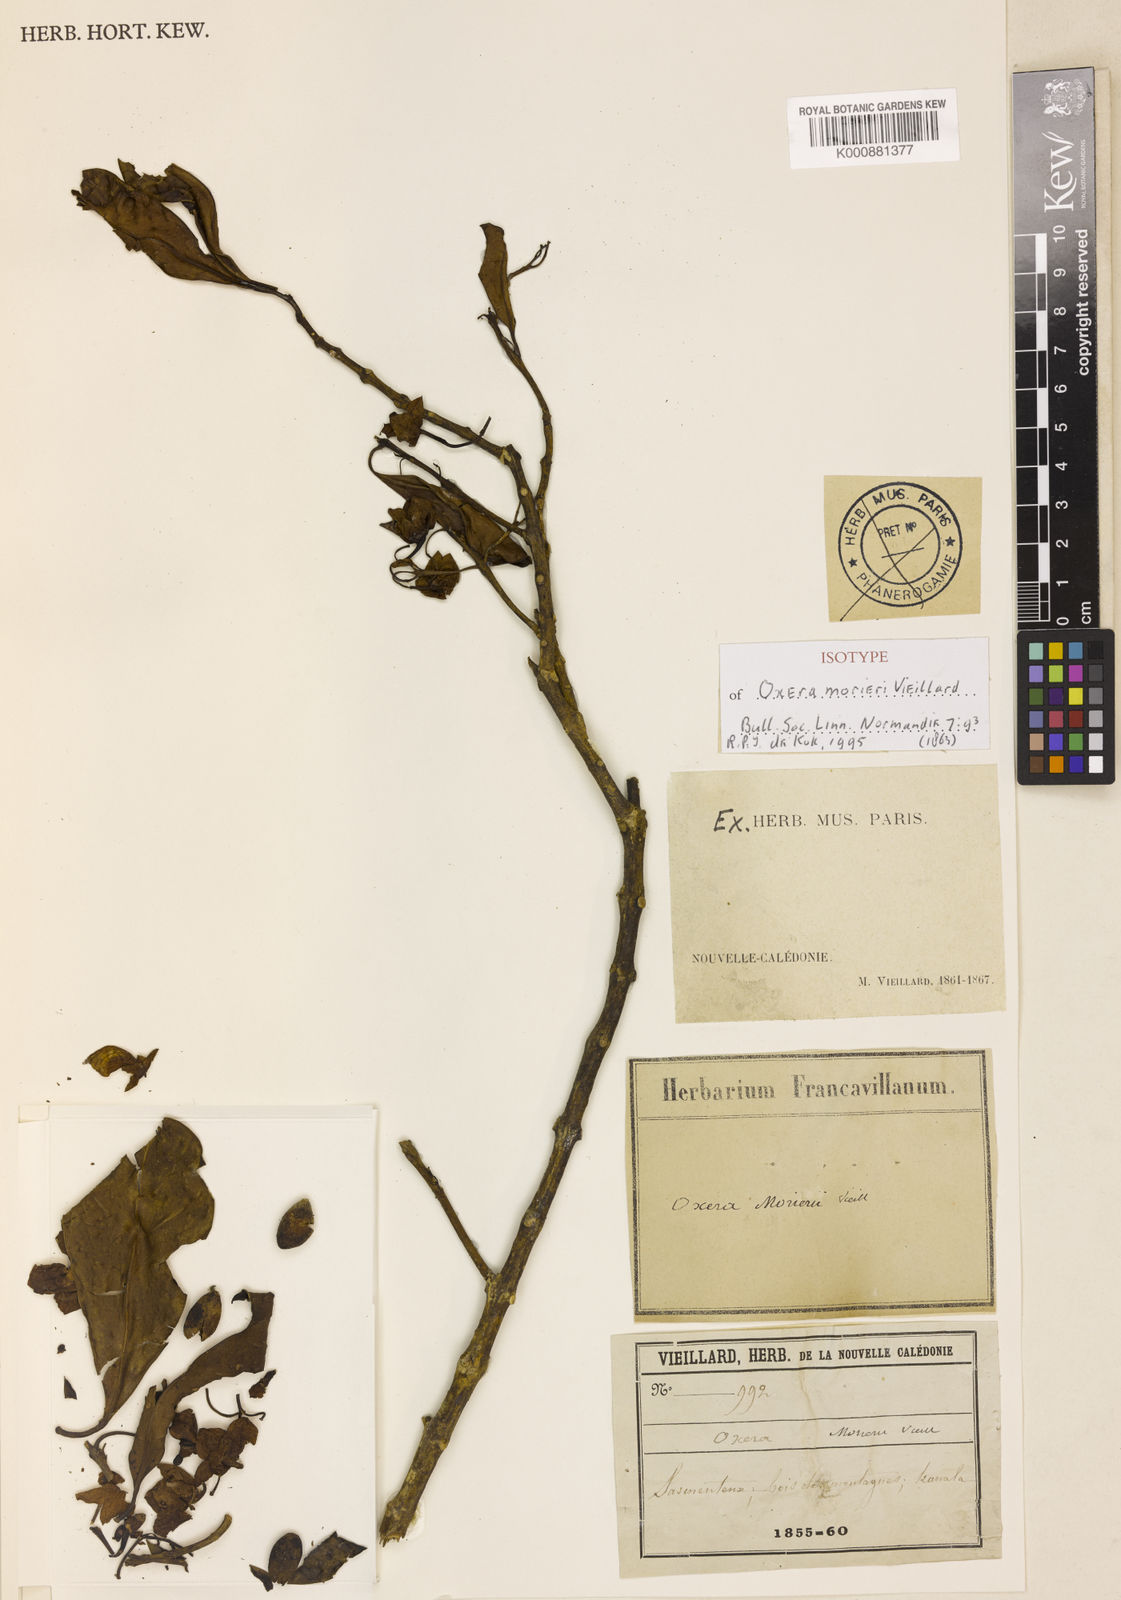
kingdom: Plantae
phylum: Tracheophyta
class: Magnoliopsida
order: Lamiales
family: Lamiaceae
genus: Oxera
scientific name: Oxera morierei
